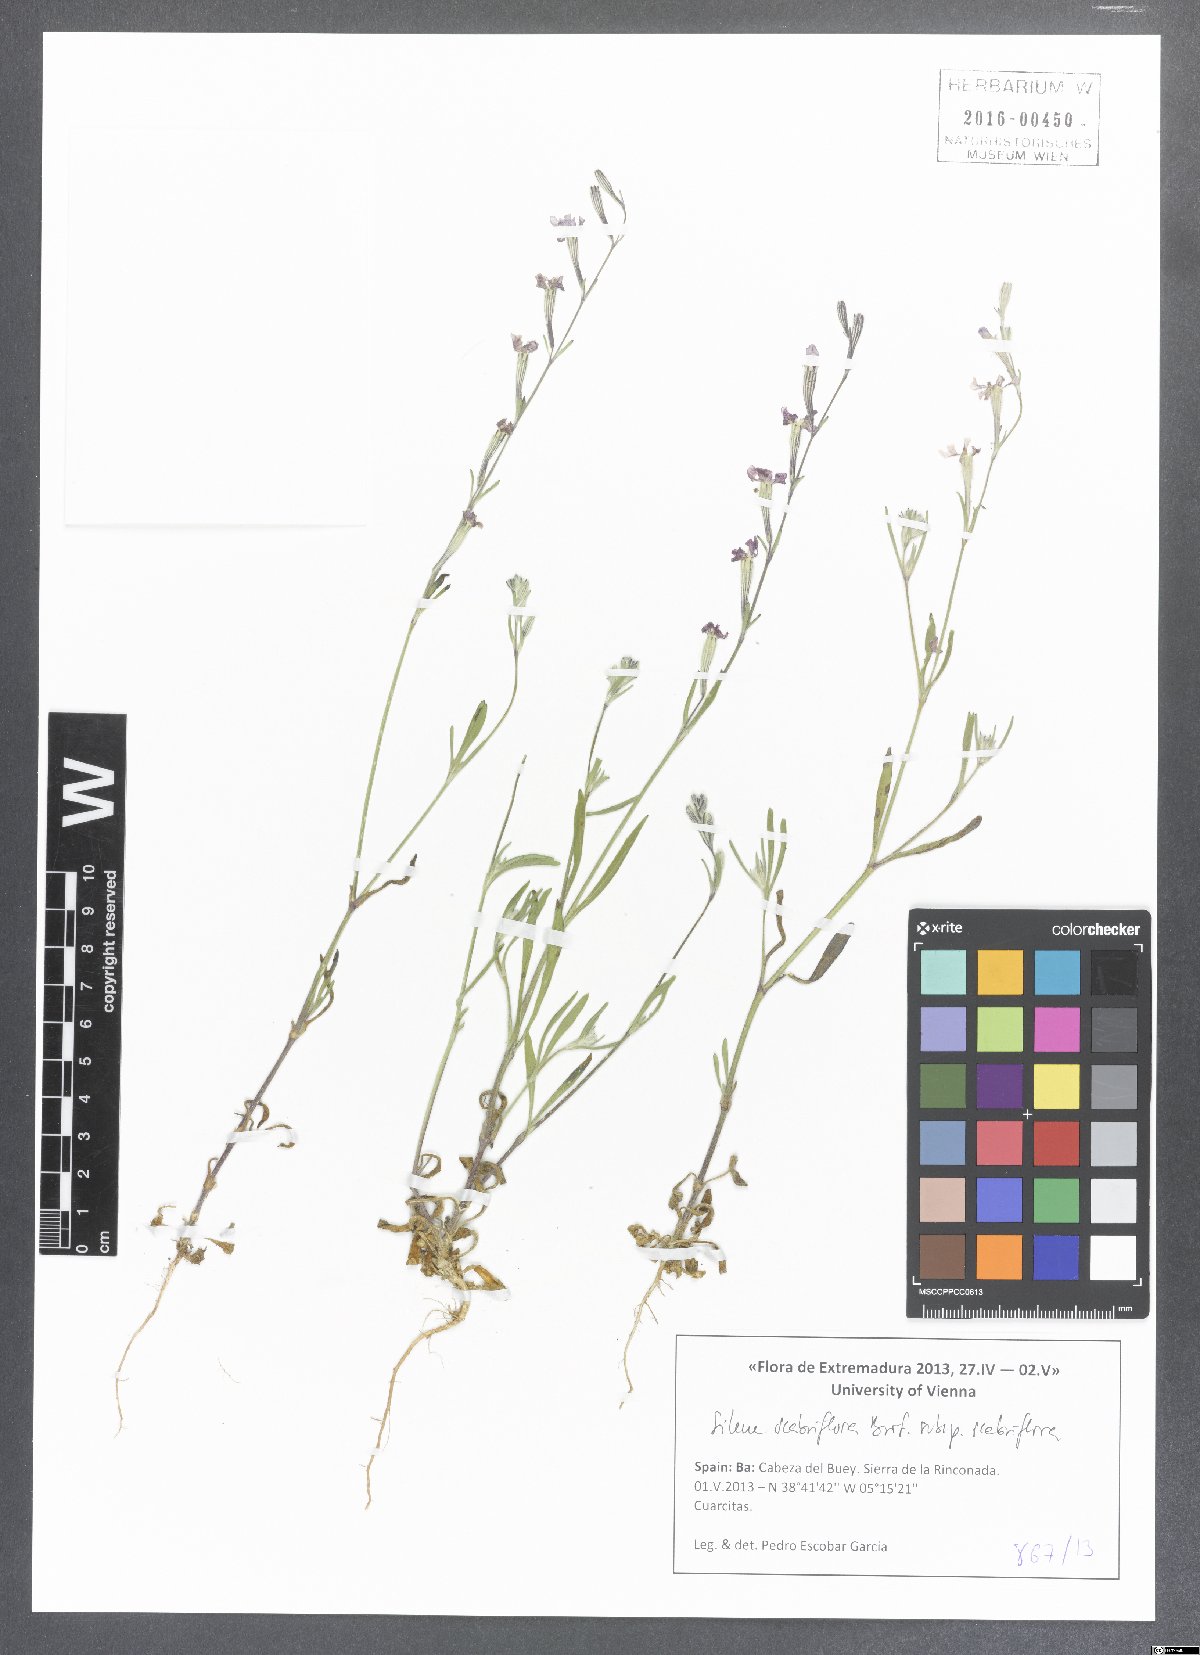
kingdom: Plantae
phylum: Tracheophyta
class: Magnoliopsida
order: Caryophyllales
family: Caryophyllaceae
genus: Silene
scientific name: Silene scabriflora
